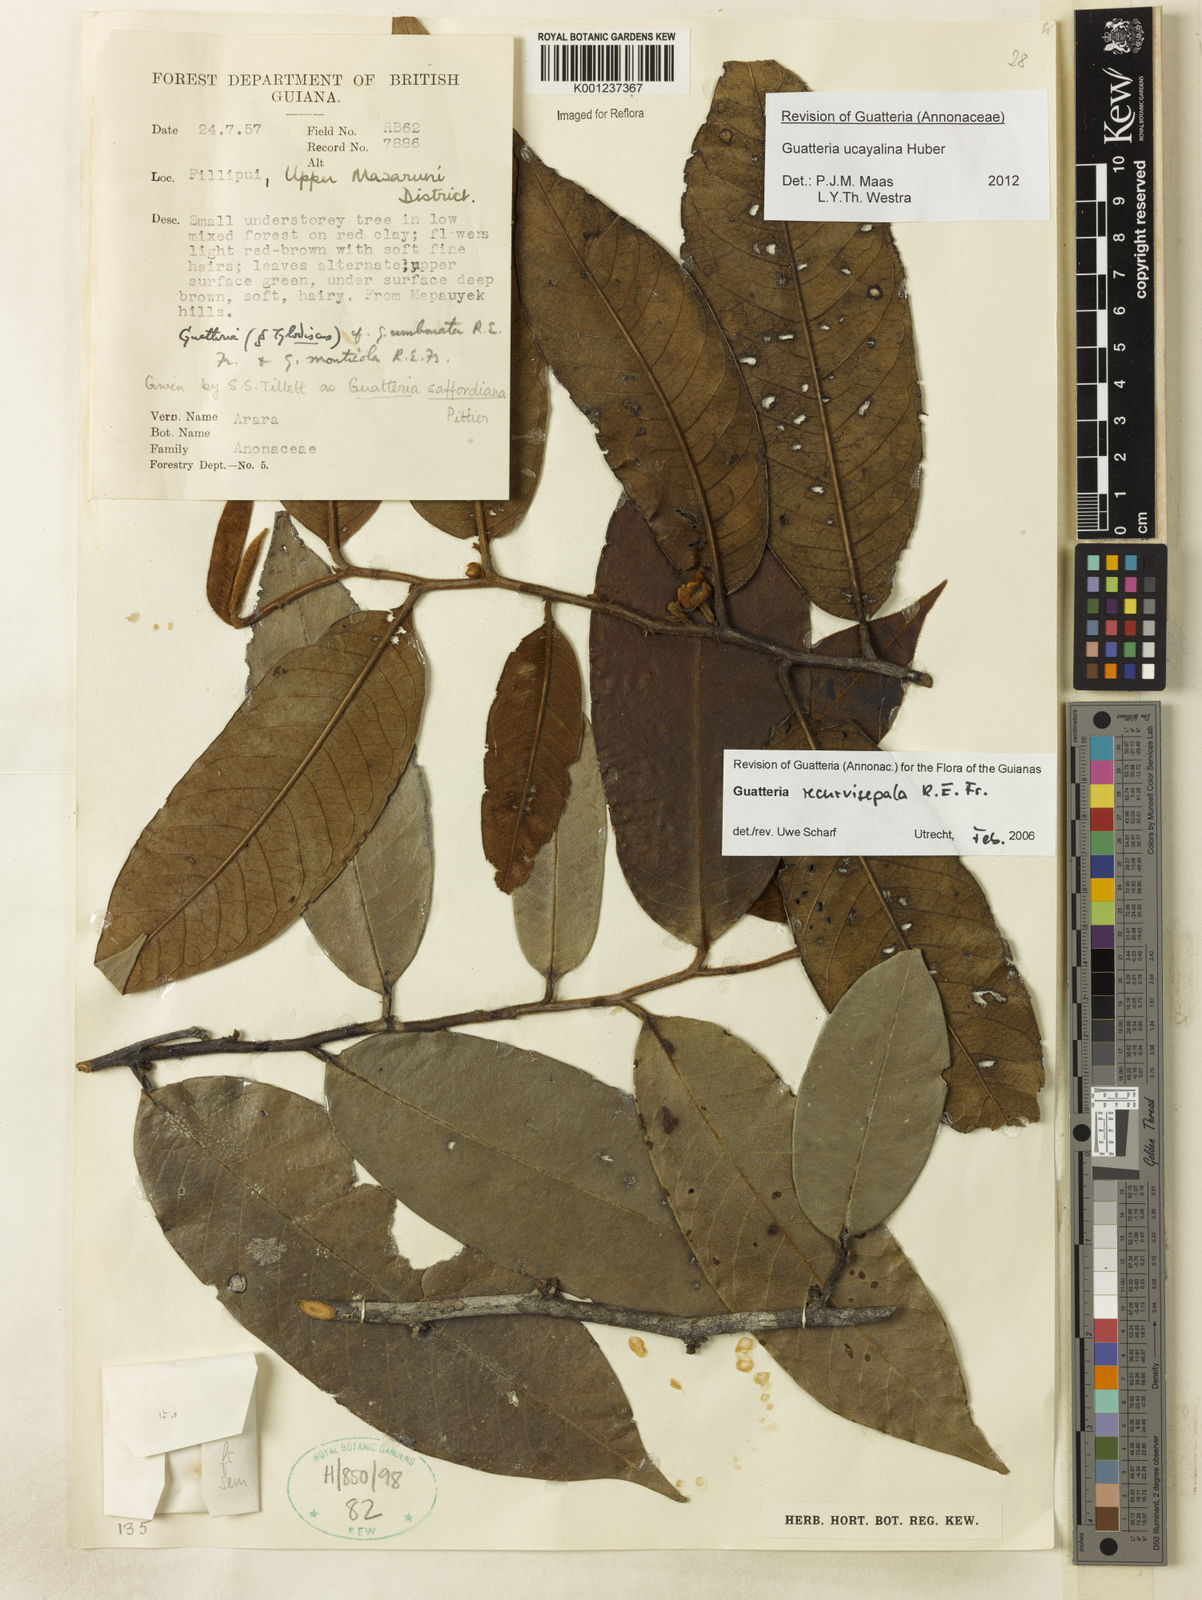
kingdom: Plantae
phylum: Tracheophyta
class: Magnoliopsida
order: Magnoliales
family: Annonaceae
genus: Guatteria
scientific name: Guatteria blepharophylla
